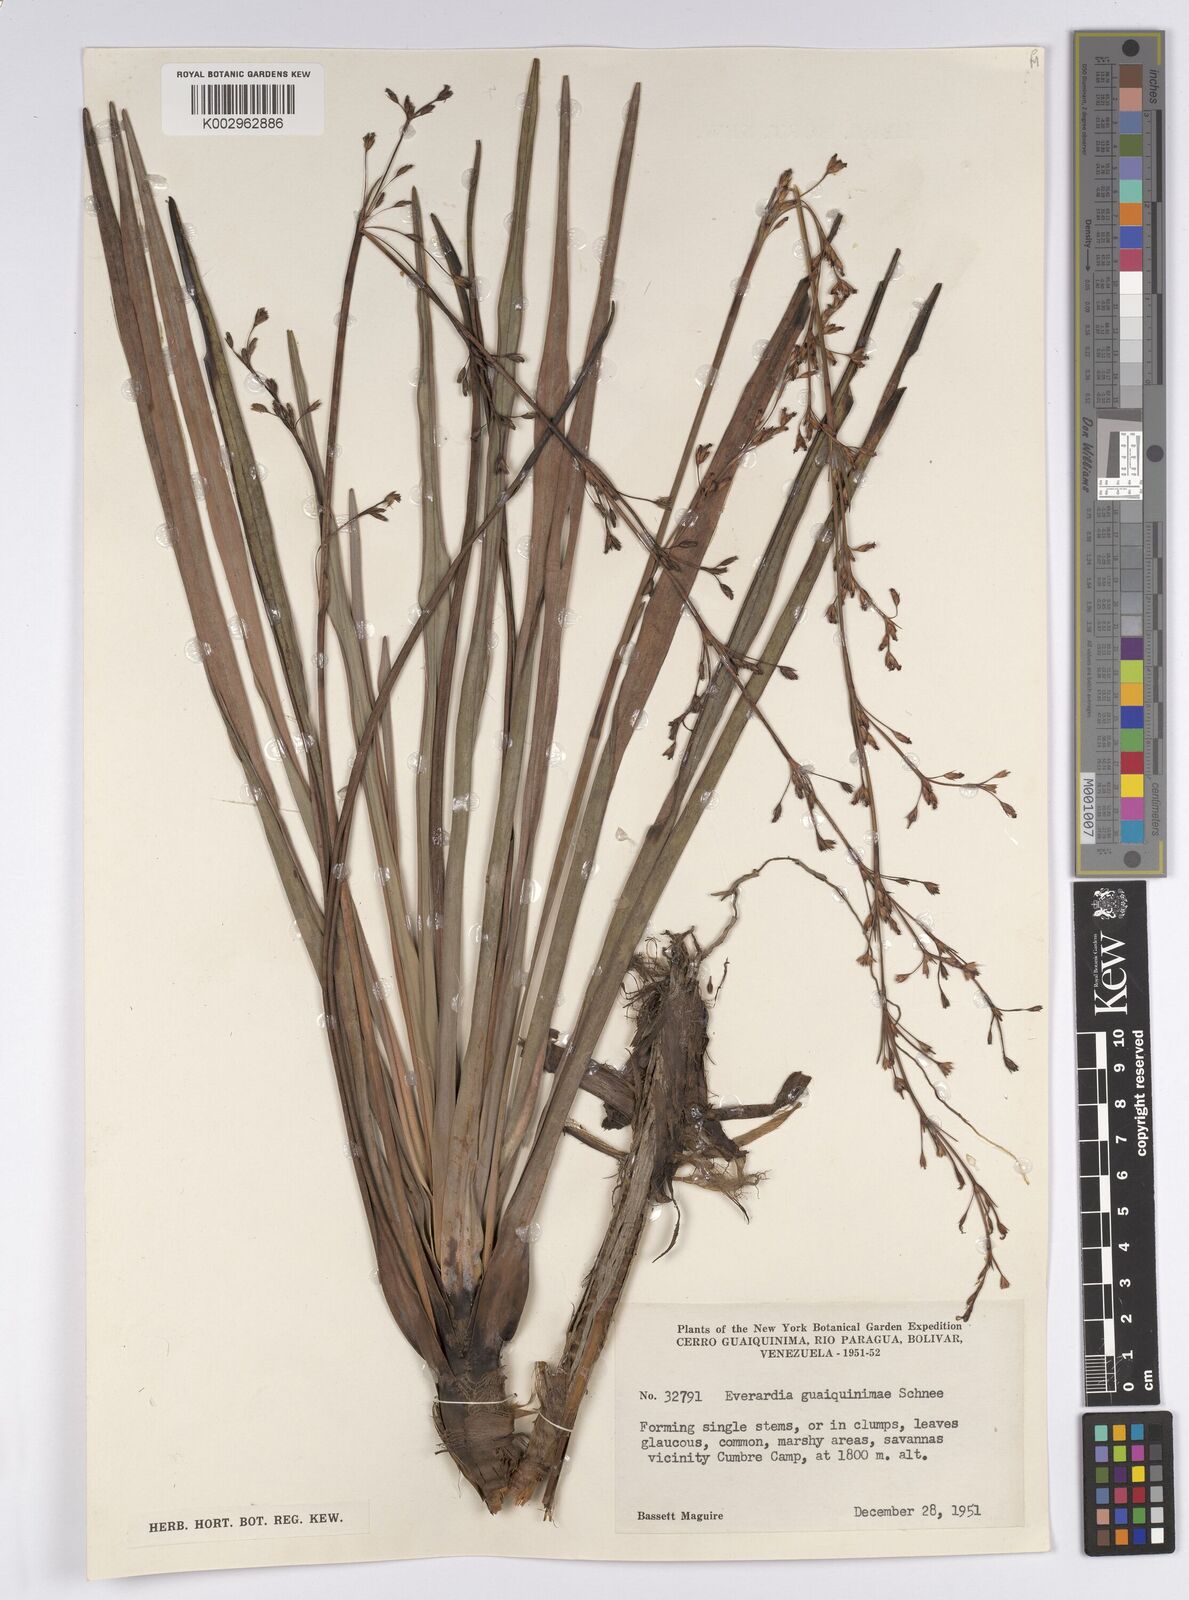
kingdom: Plantae
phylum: Tracheophyta
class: Liliopsida
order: Poales
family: Cyperaceae
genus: Cephalocarpus
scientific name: Cephalocarpus montanus
